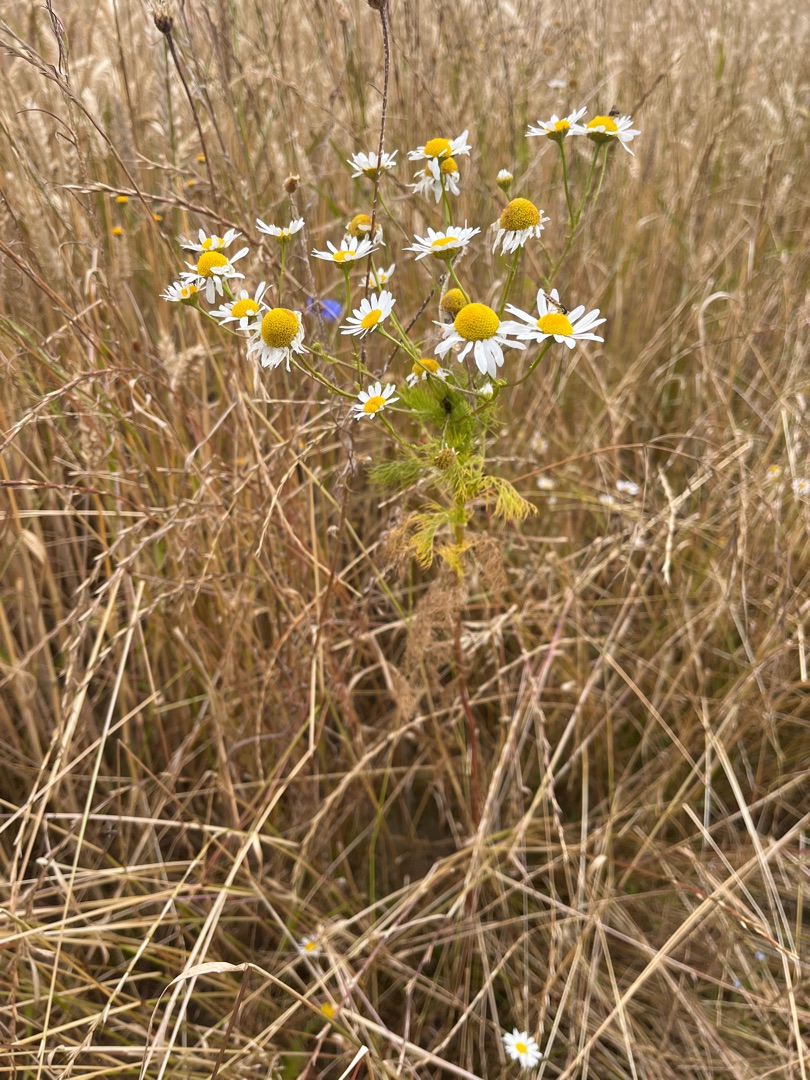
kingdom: Plantae
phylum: Tracheophyta
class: Magnoliopsida
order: Asterales
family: Asteraceae
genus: Tripleurospermum
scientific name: Tripleurospermum inodorum
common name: Lugtløs kamille
